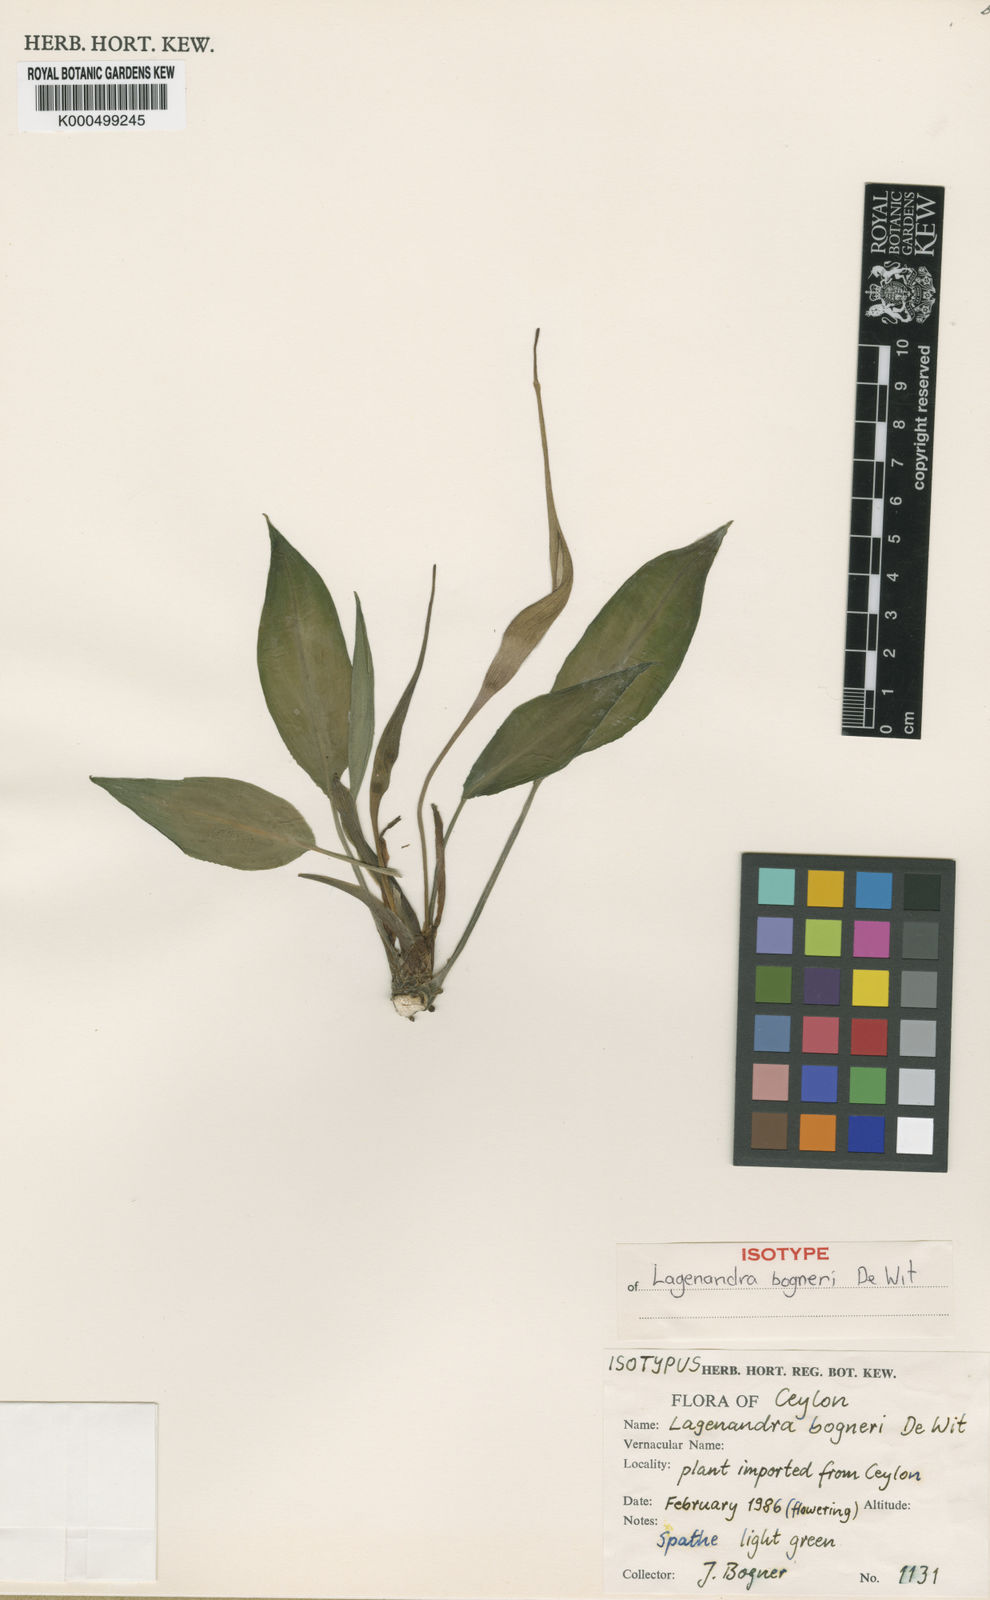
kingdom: Plantae
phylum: Tracheophyta
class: Liliopsida
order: Alismatales
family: Araceae
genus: Lagenandra
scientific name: Lagenandra bogneri
